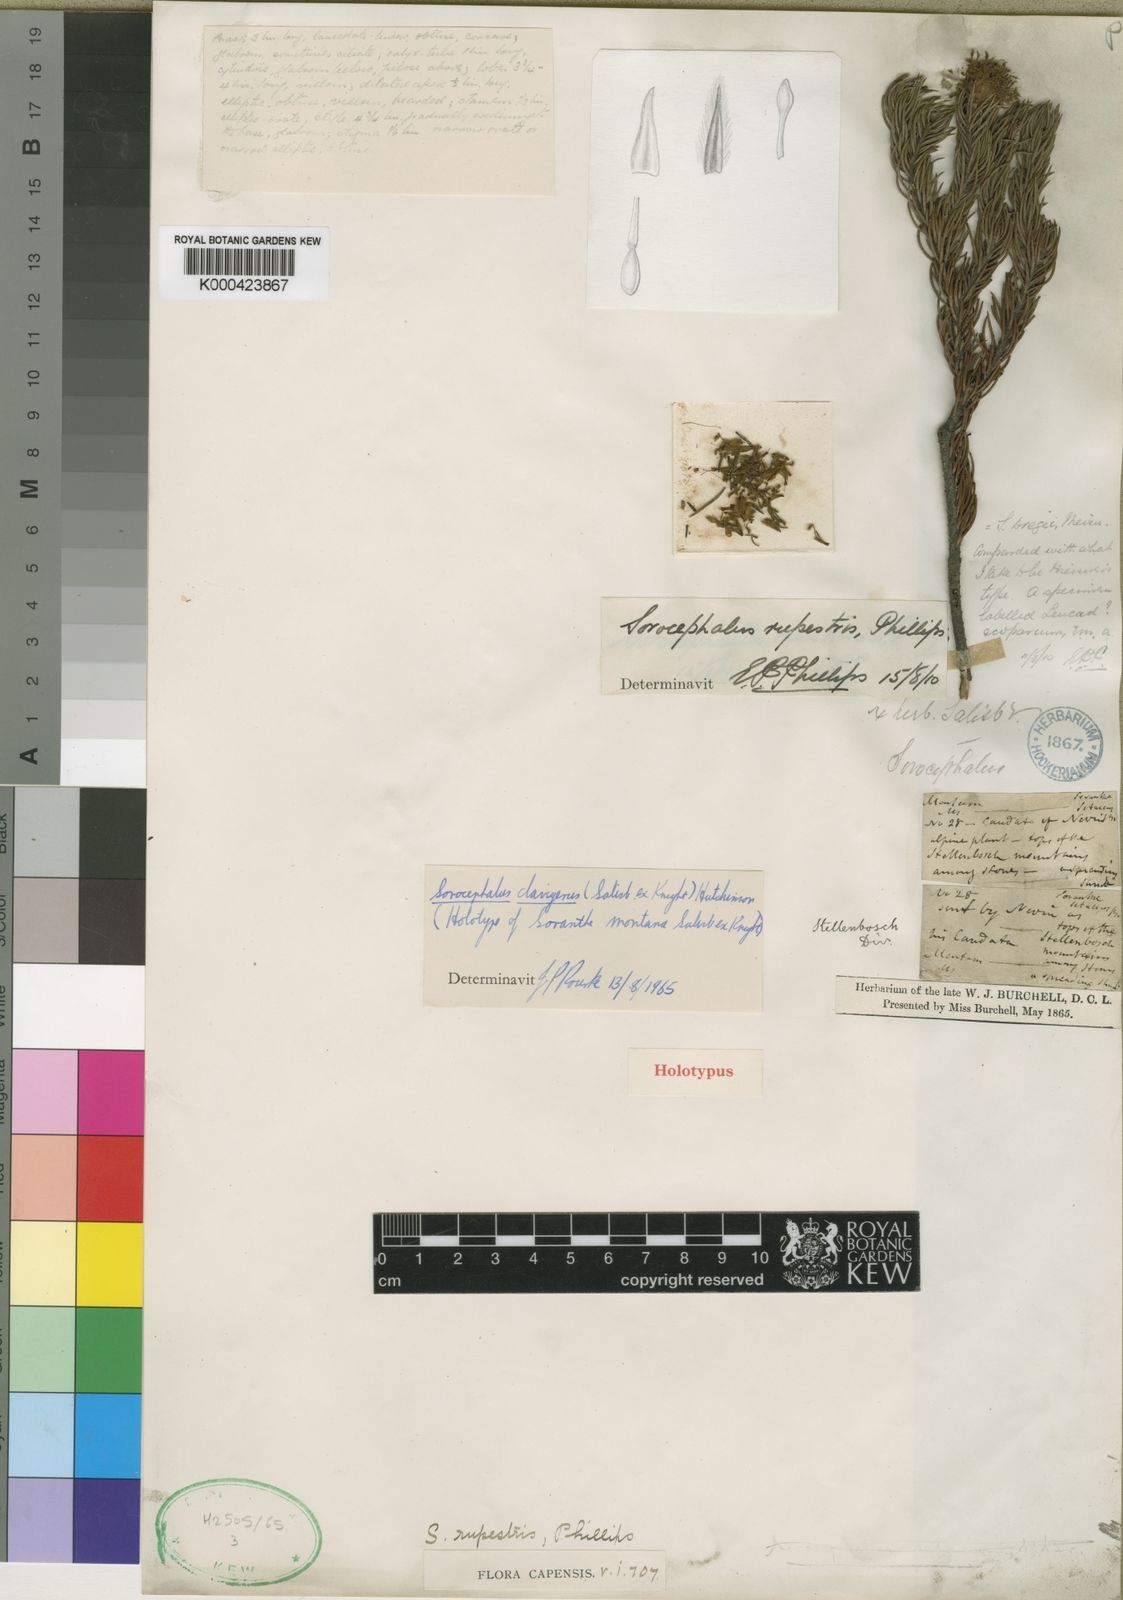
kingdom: Plantae
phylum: Tracheophyta
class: Magnoliopsida
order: Proteales
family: Proteaceae
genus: Sorocephalus
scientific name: Sorocephalus
